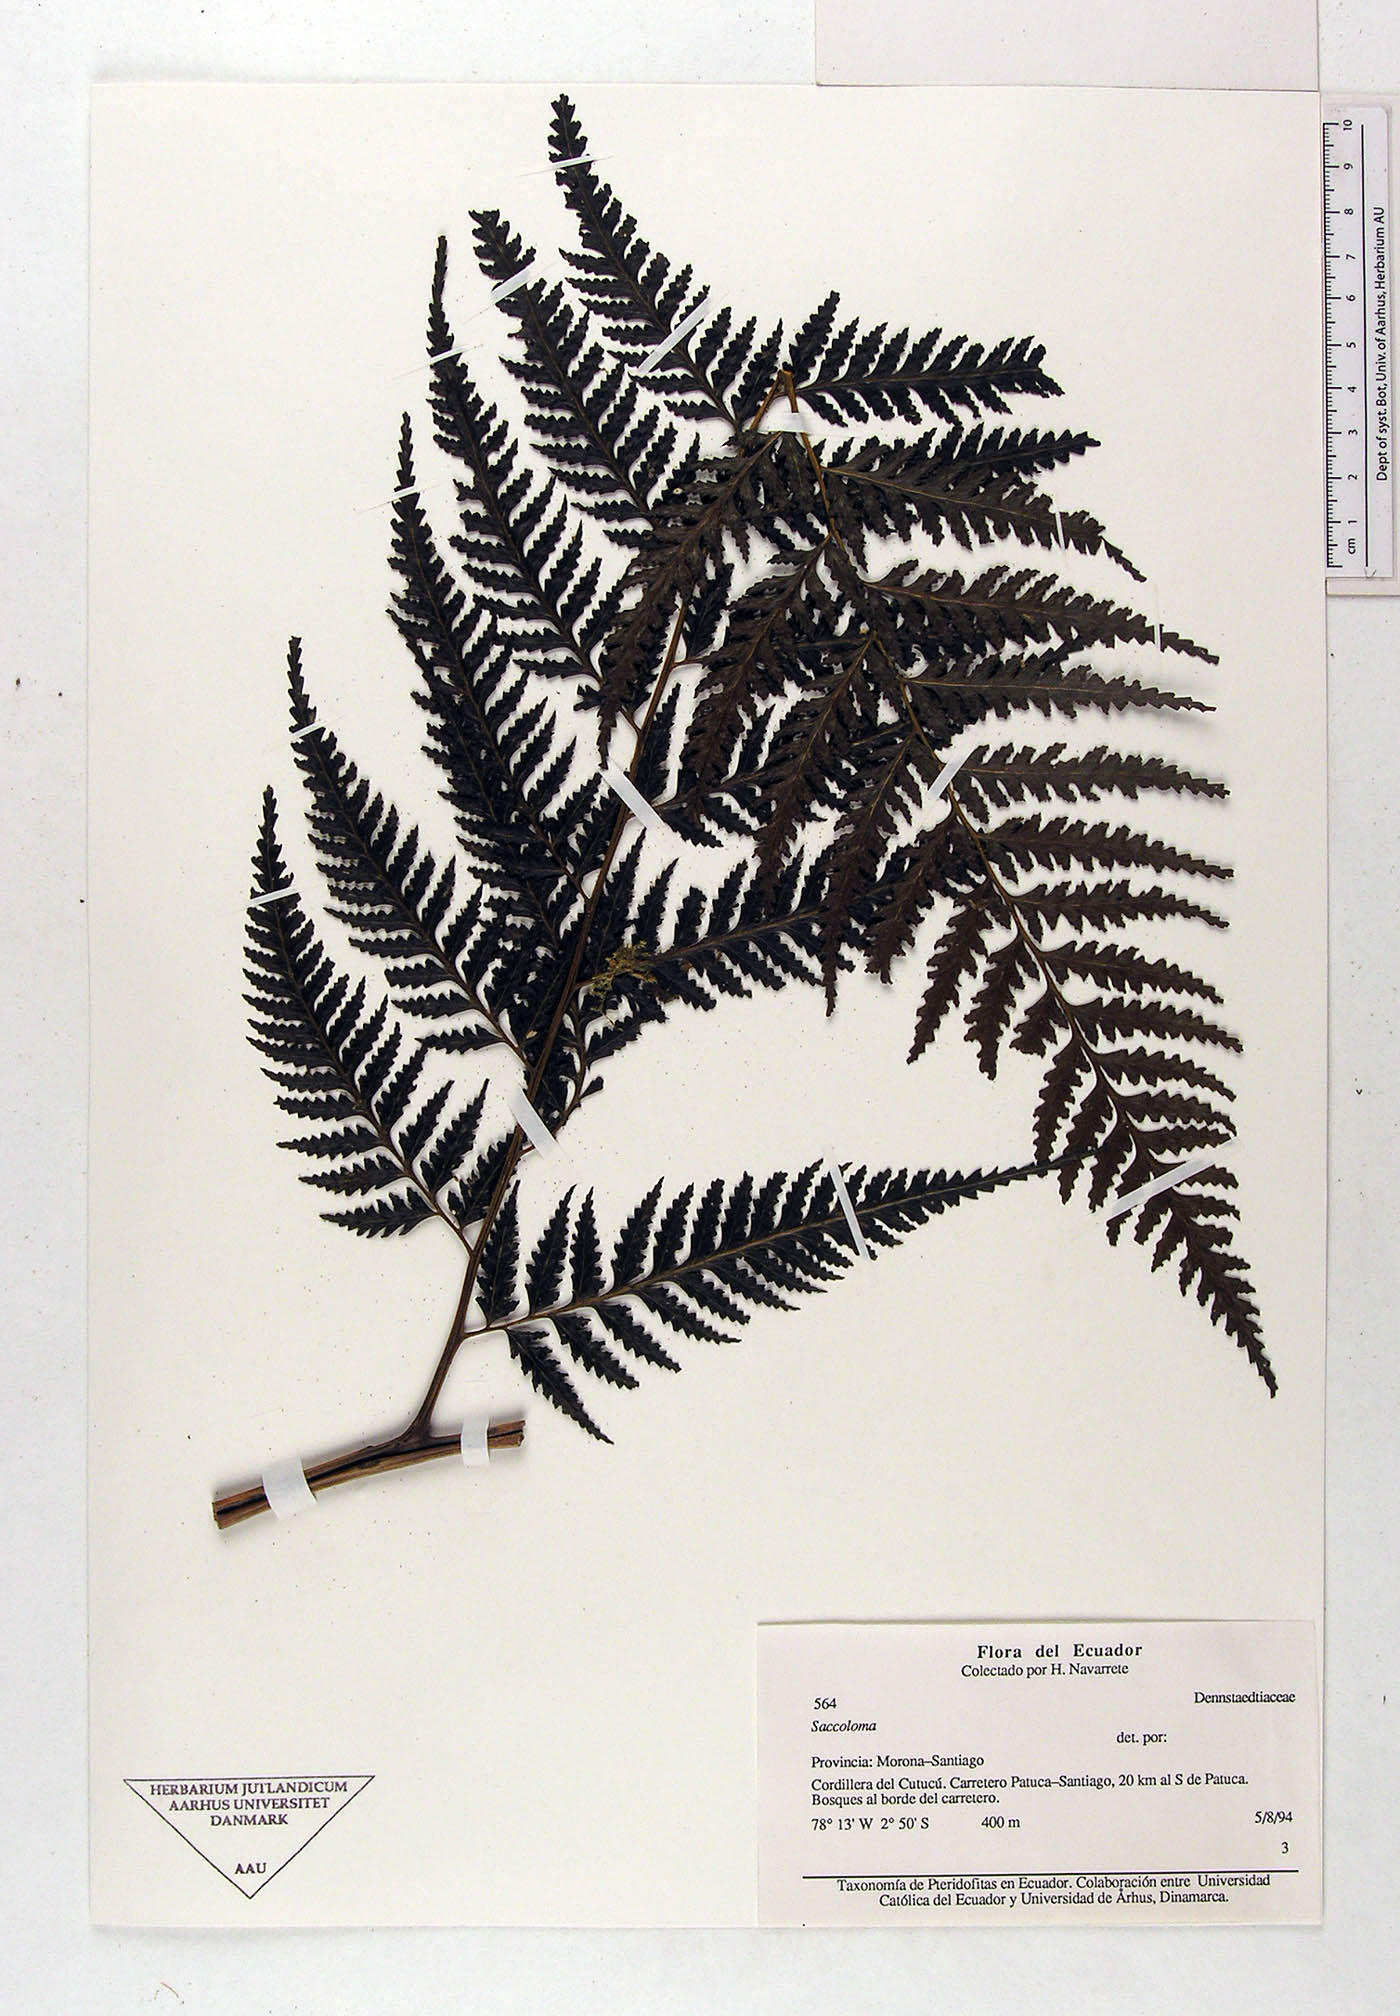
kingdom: Plantae
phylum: Tracheophyta
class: Polypodiopsida
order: Polypodiales
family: Saccolomataceae
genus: Saccoloma
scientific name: Saccoloma
